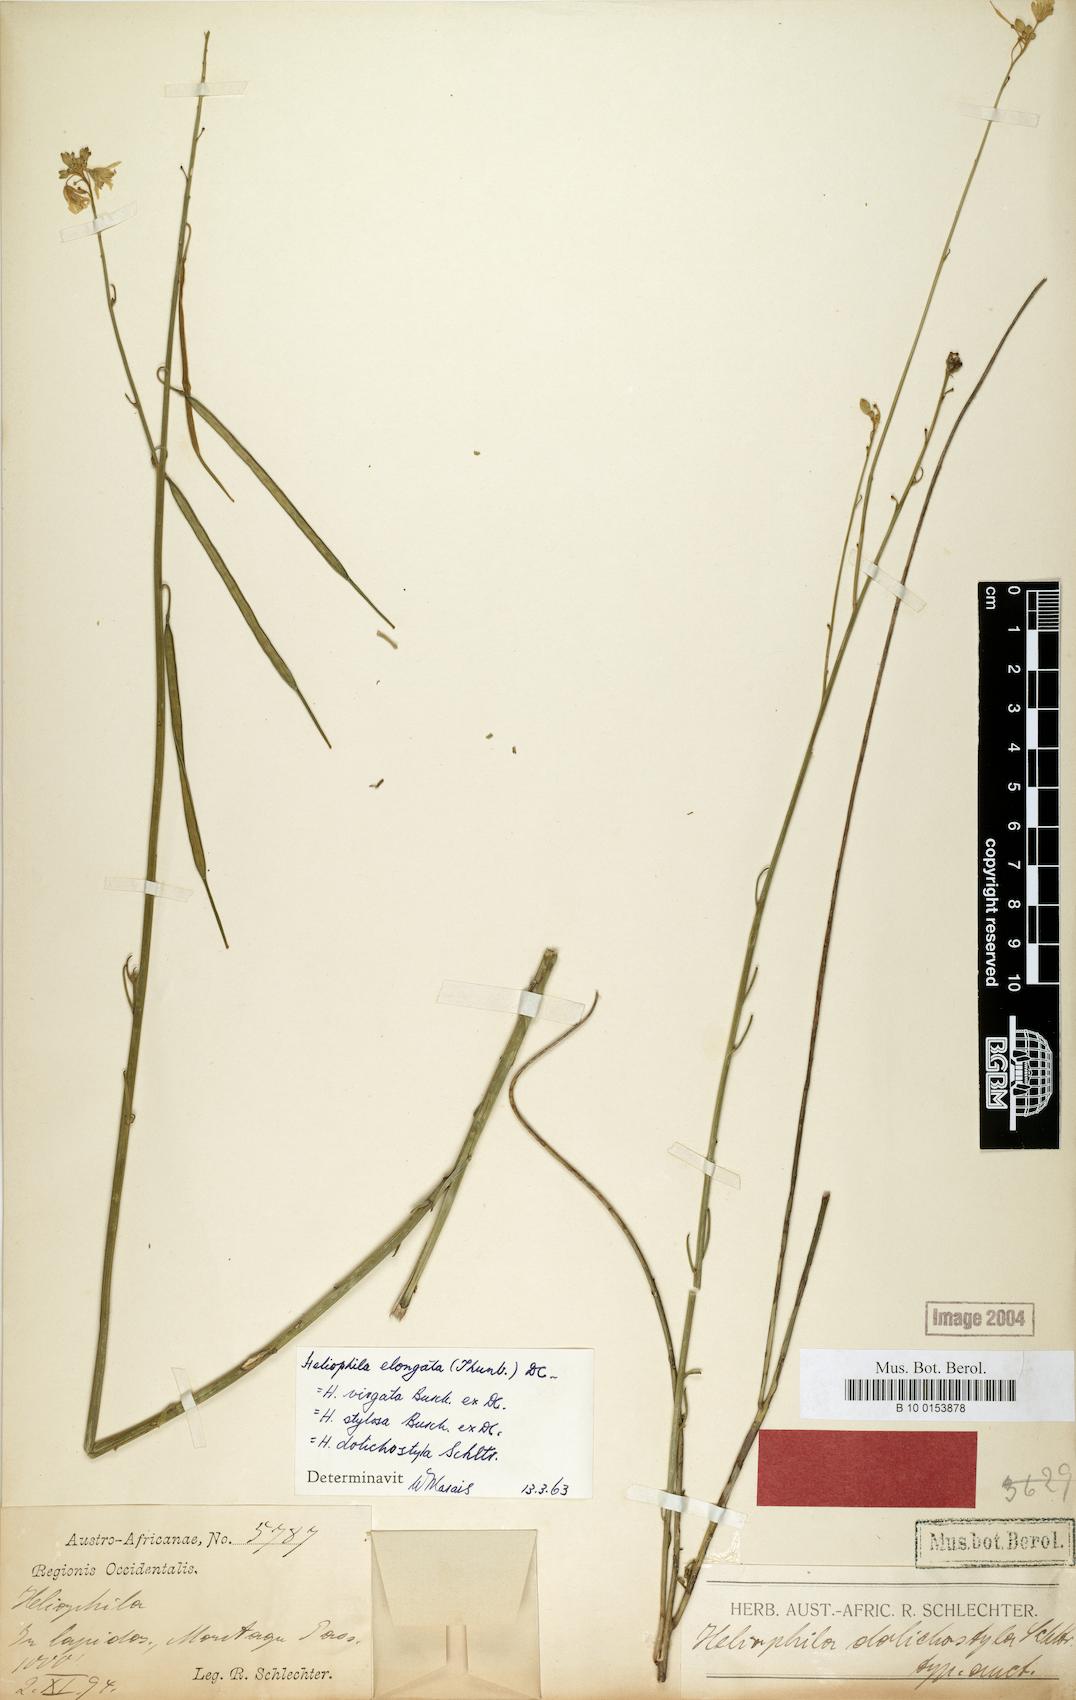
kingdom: Plantae
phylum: Tracheophyta
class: Magnoliopsida
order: Brassicales
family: Brassicaceae
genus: Heliophila
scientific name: Heliophila elongata
